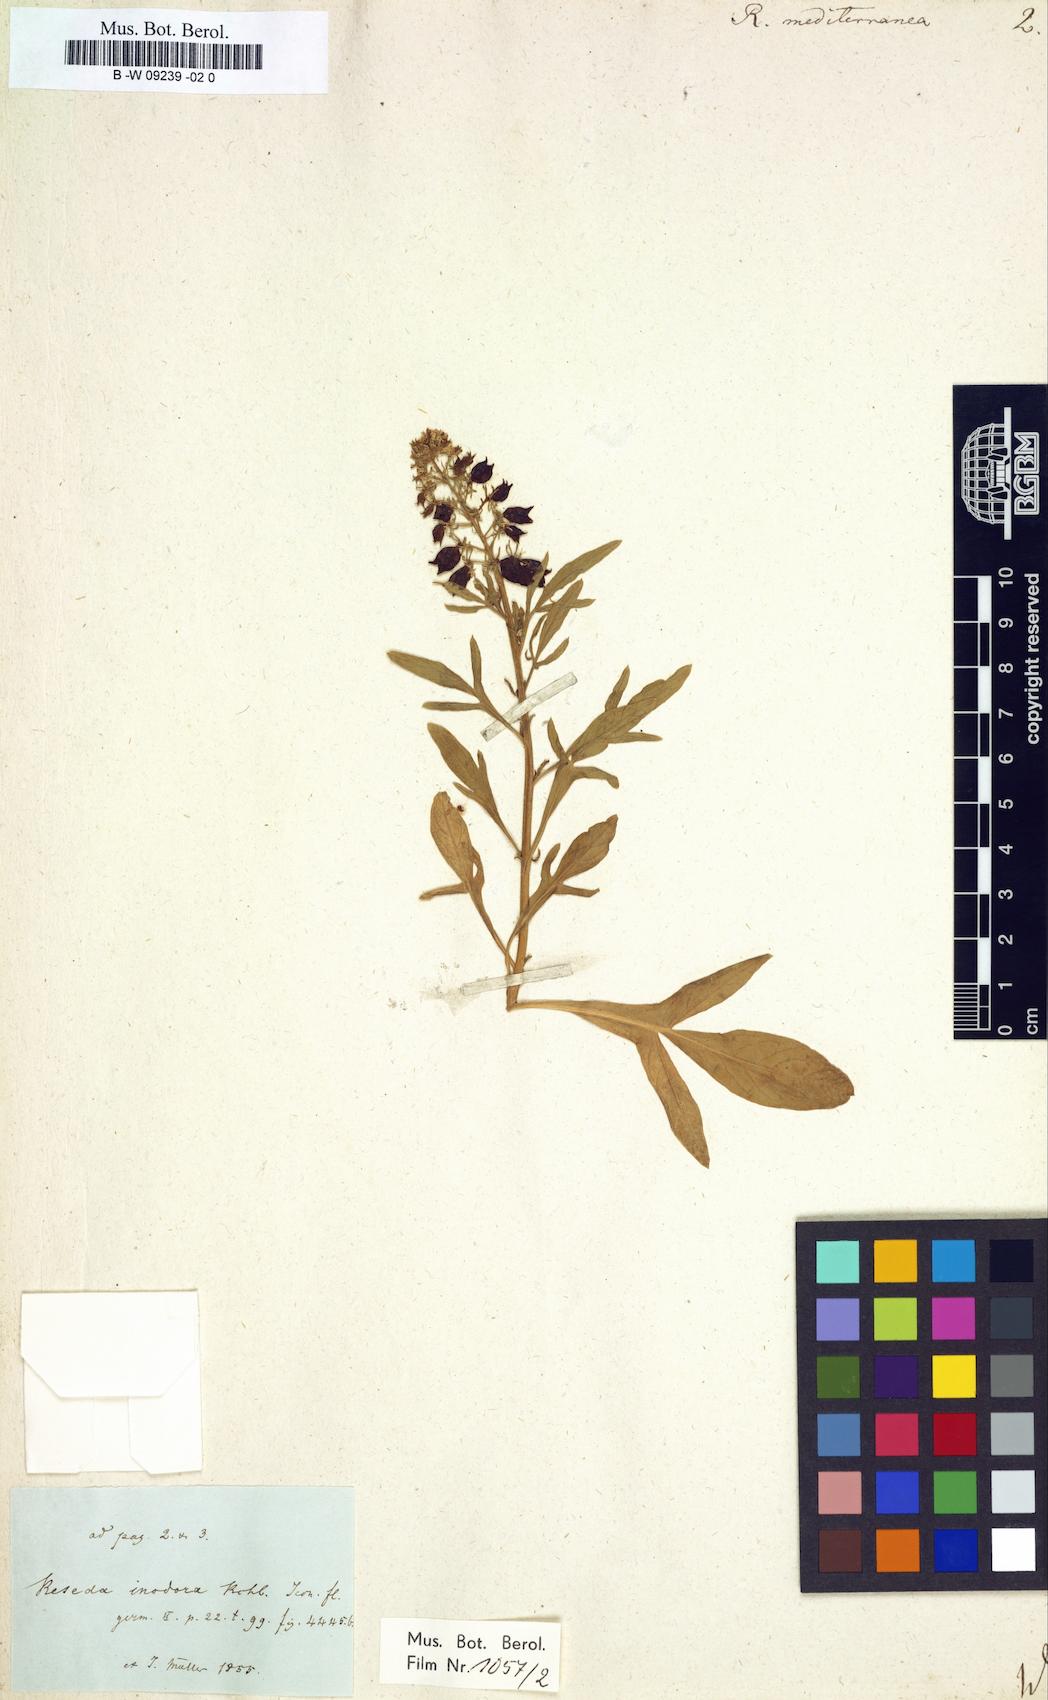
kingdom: Plantae
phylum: Tracheophyta
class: Magnoliopsida
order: Brassicales
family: Resedaceae
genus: Reseda
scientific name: Reseda mediterranea
